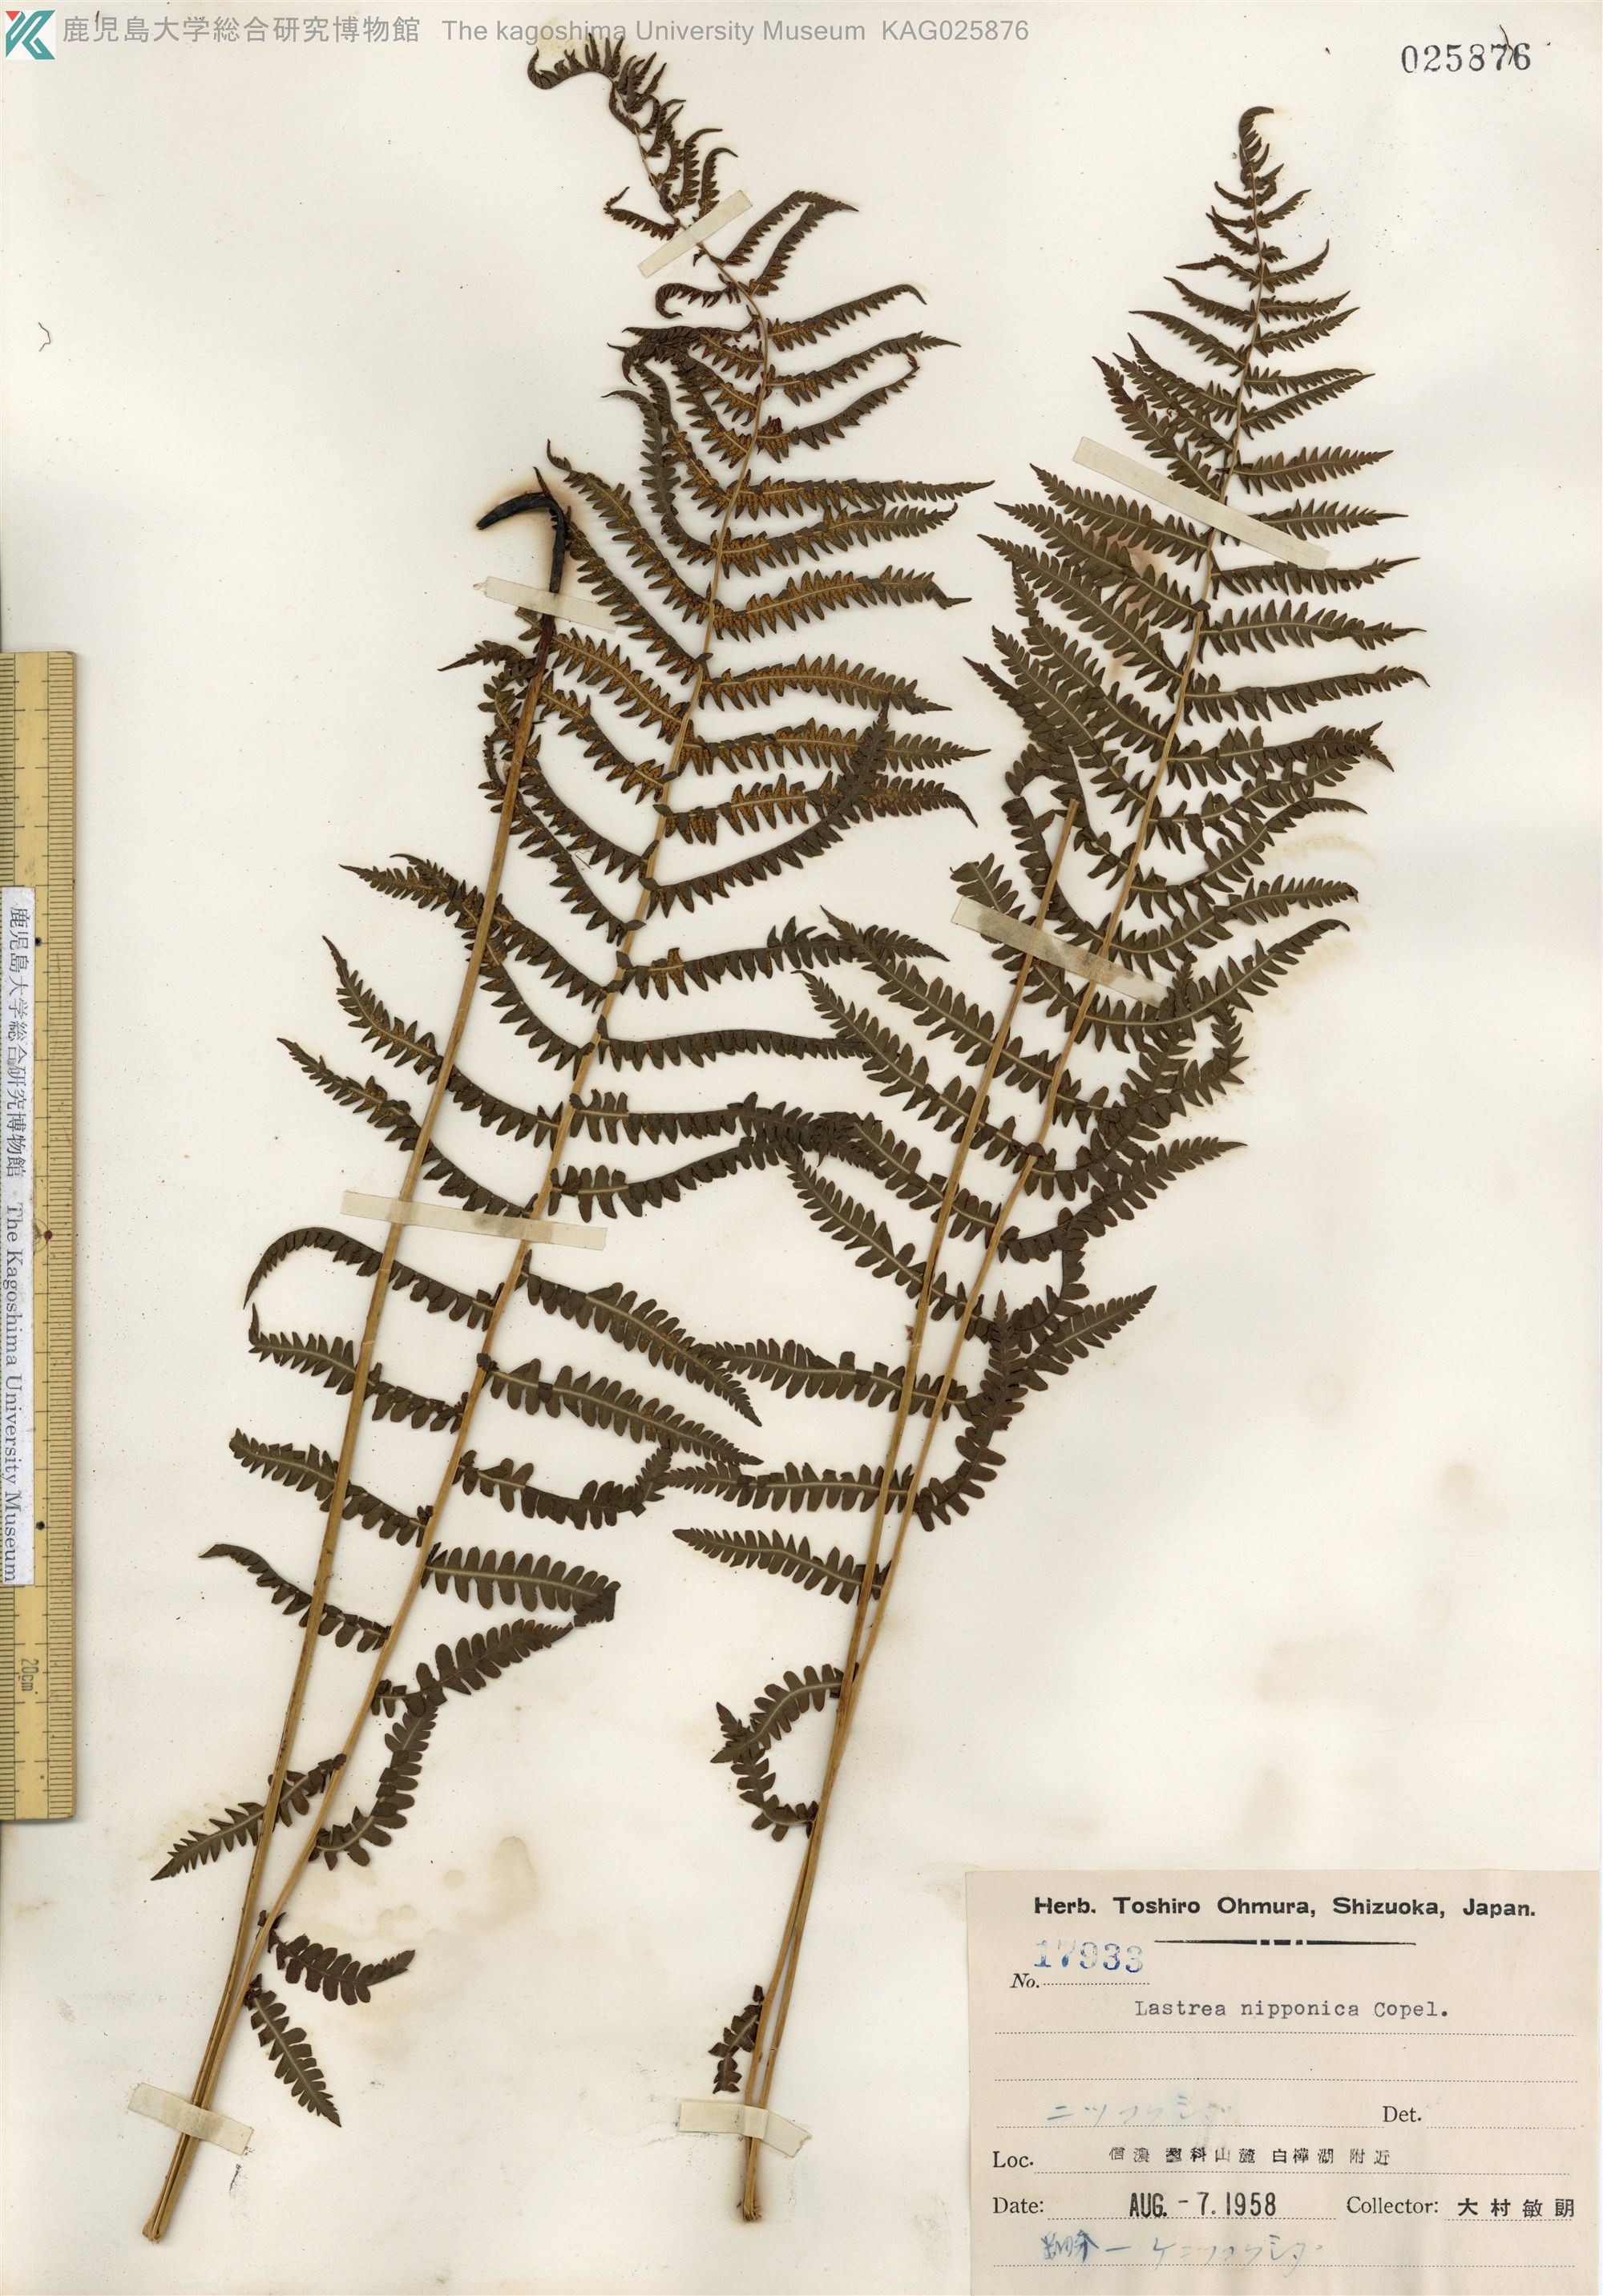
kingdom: Plantae
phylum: Tracheophyta
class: Polypodiopsida
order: Polypodiales
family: Thelypteridaceae
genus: Coryphopteris
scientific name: Coryphopteris nipponica
